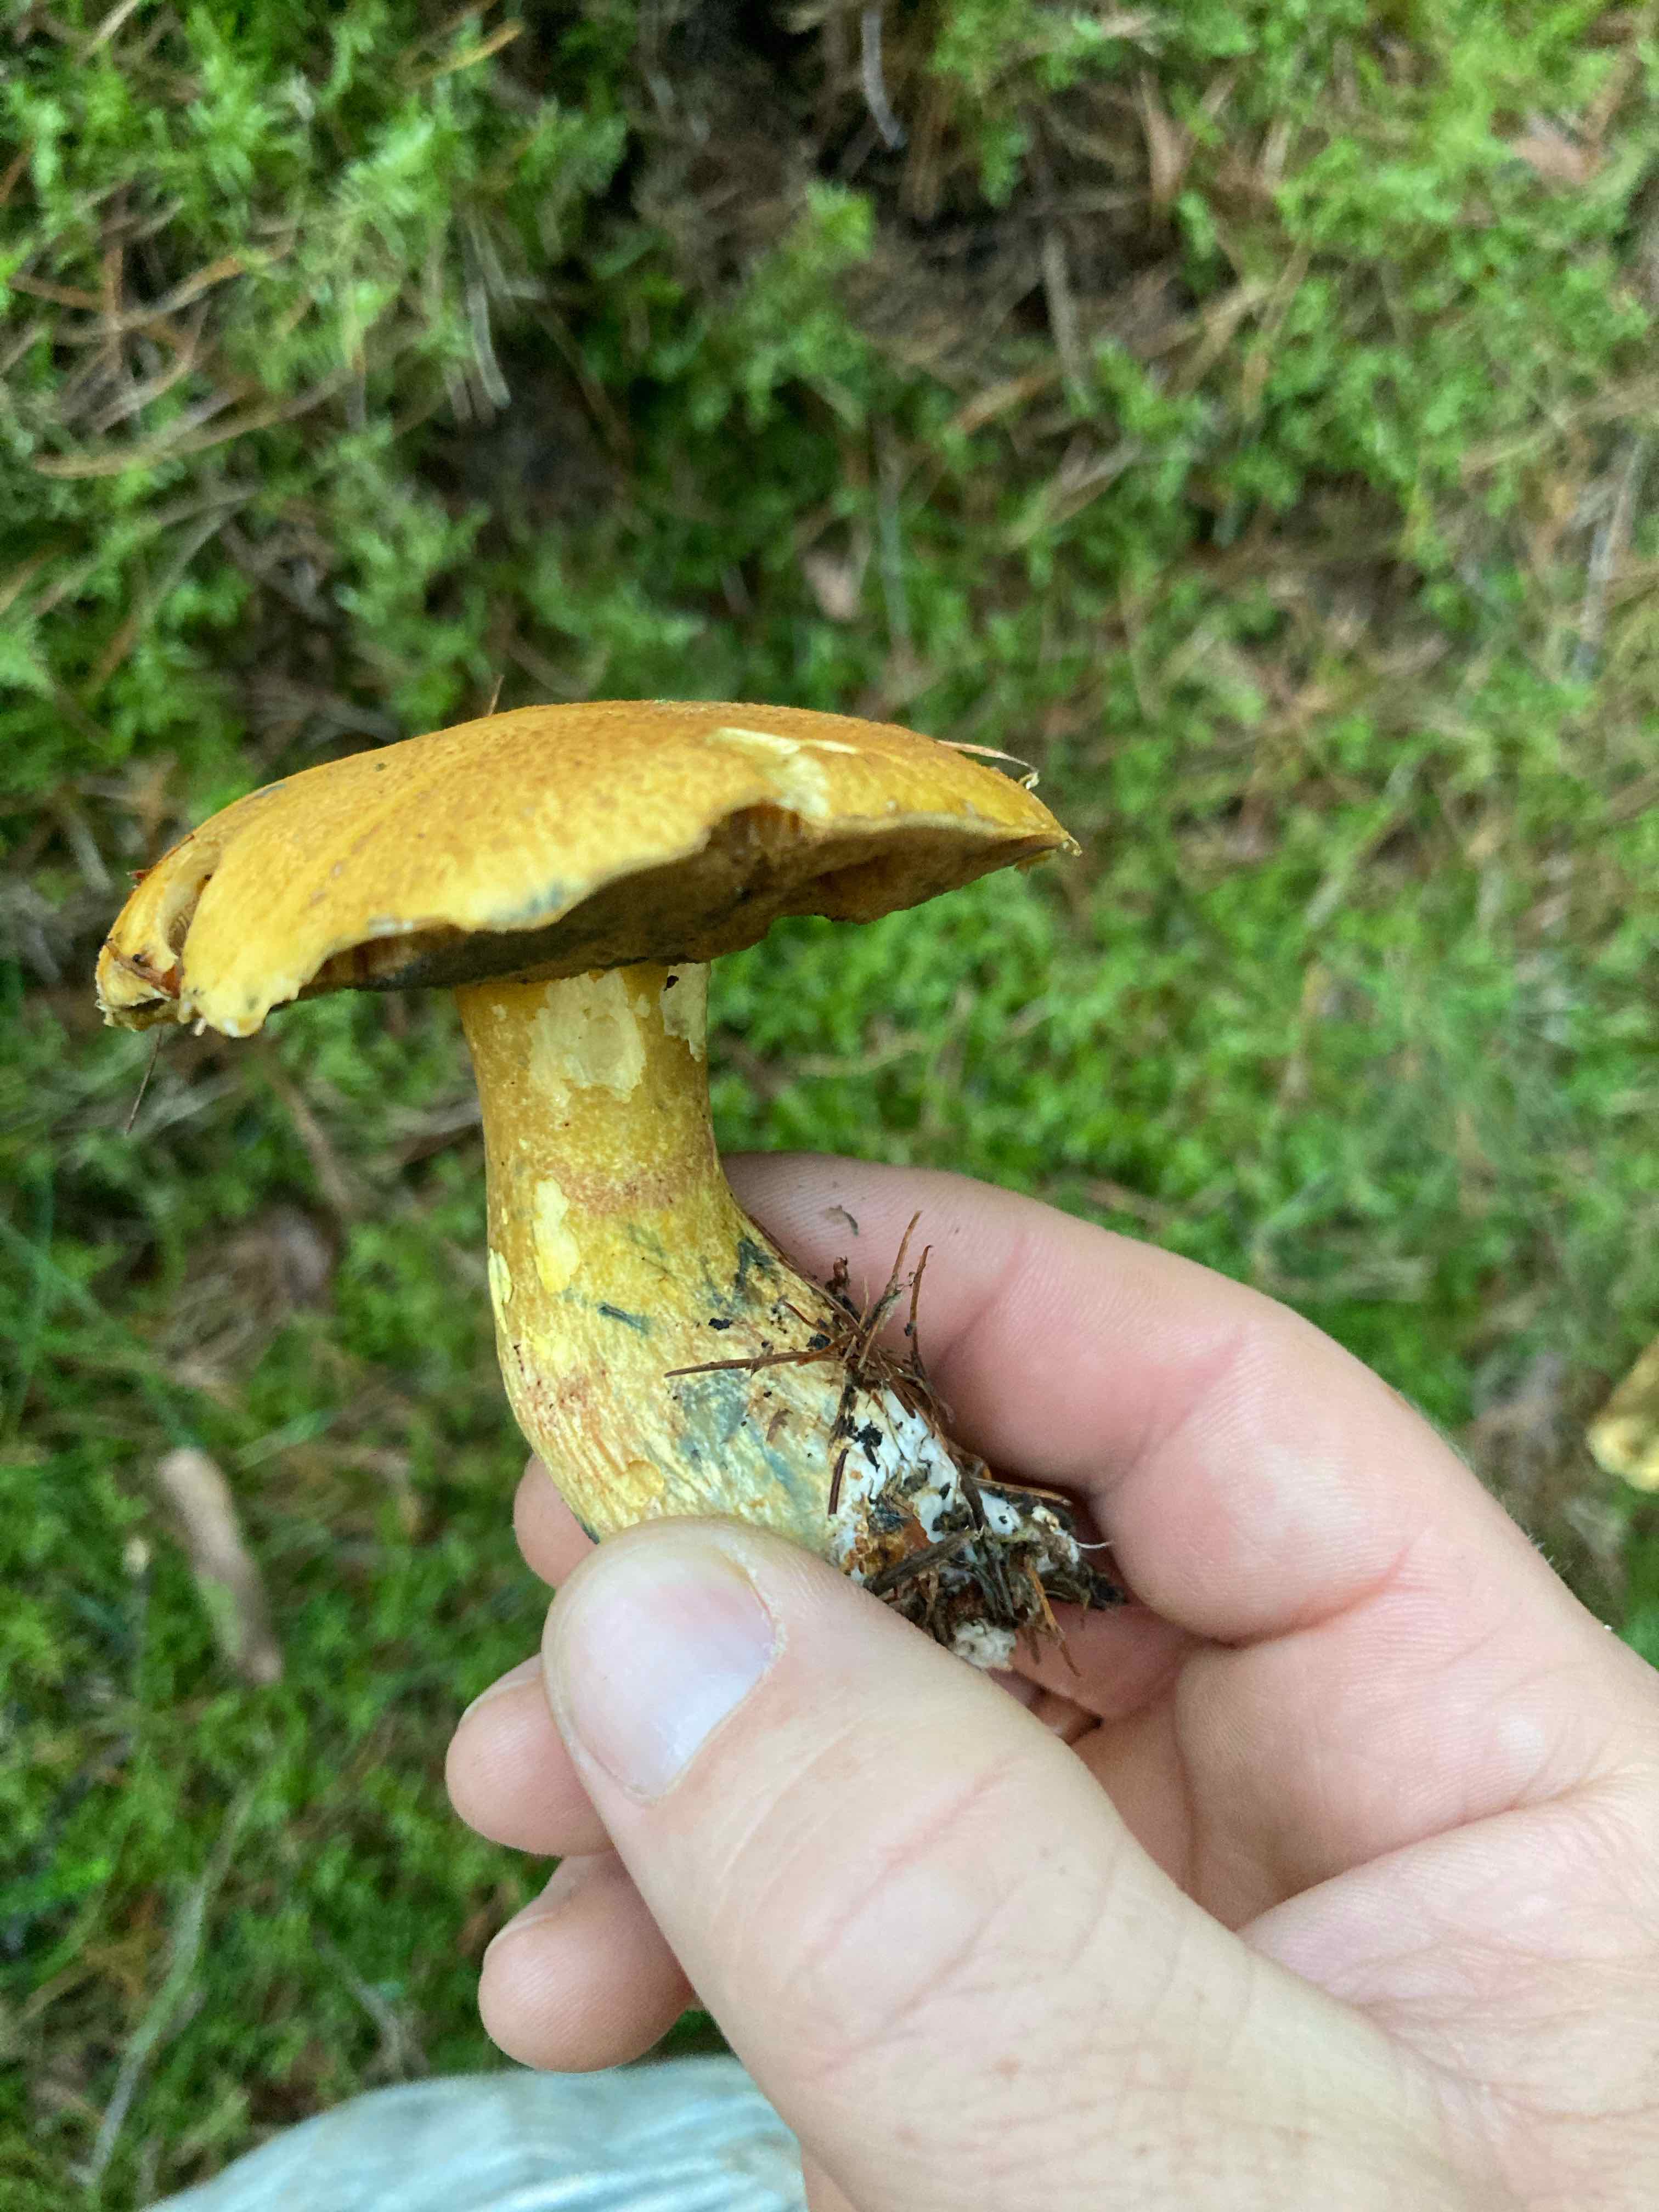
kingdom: Fungi
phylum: Basidiomycota
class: Agaricomycetes
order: Boletales
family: Suillaceae
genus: Suillus
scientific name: Suillus variegatus
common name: broget slimrørhat
